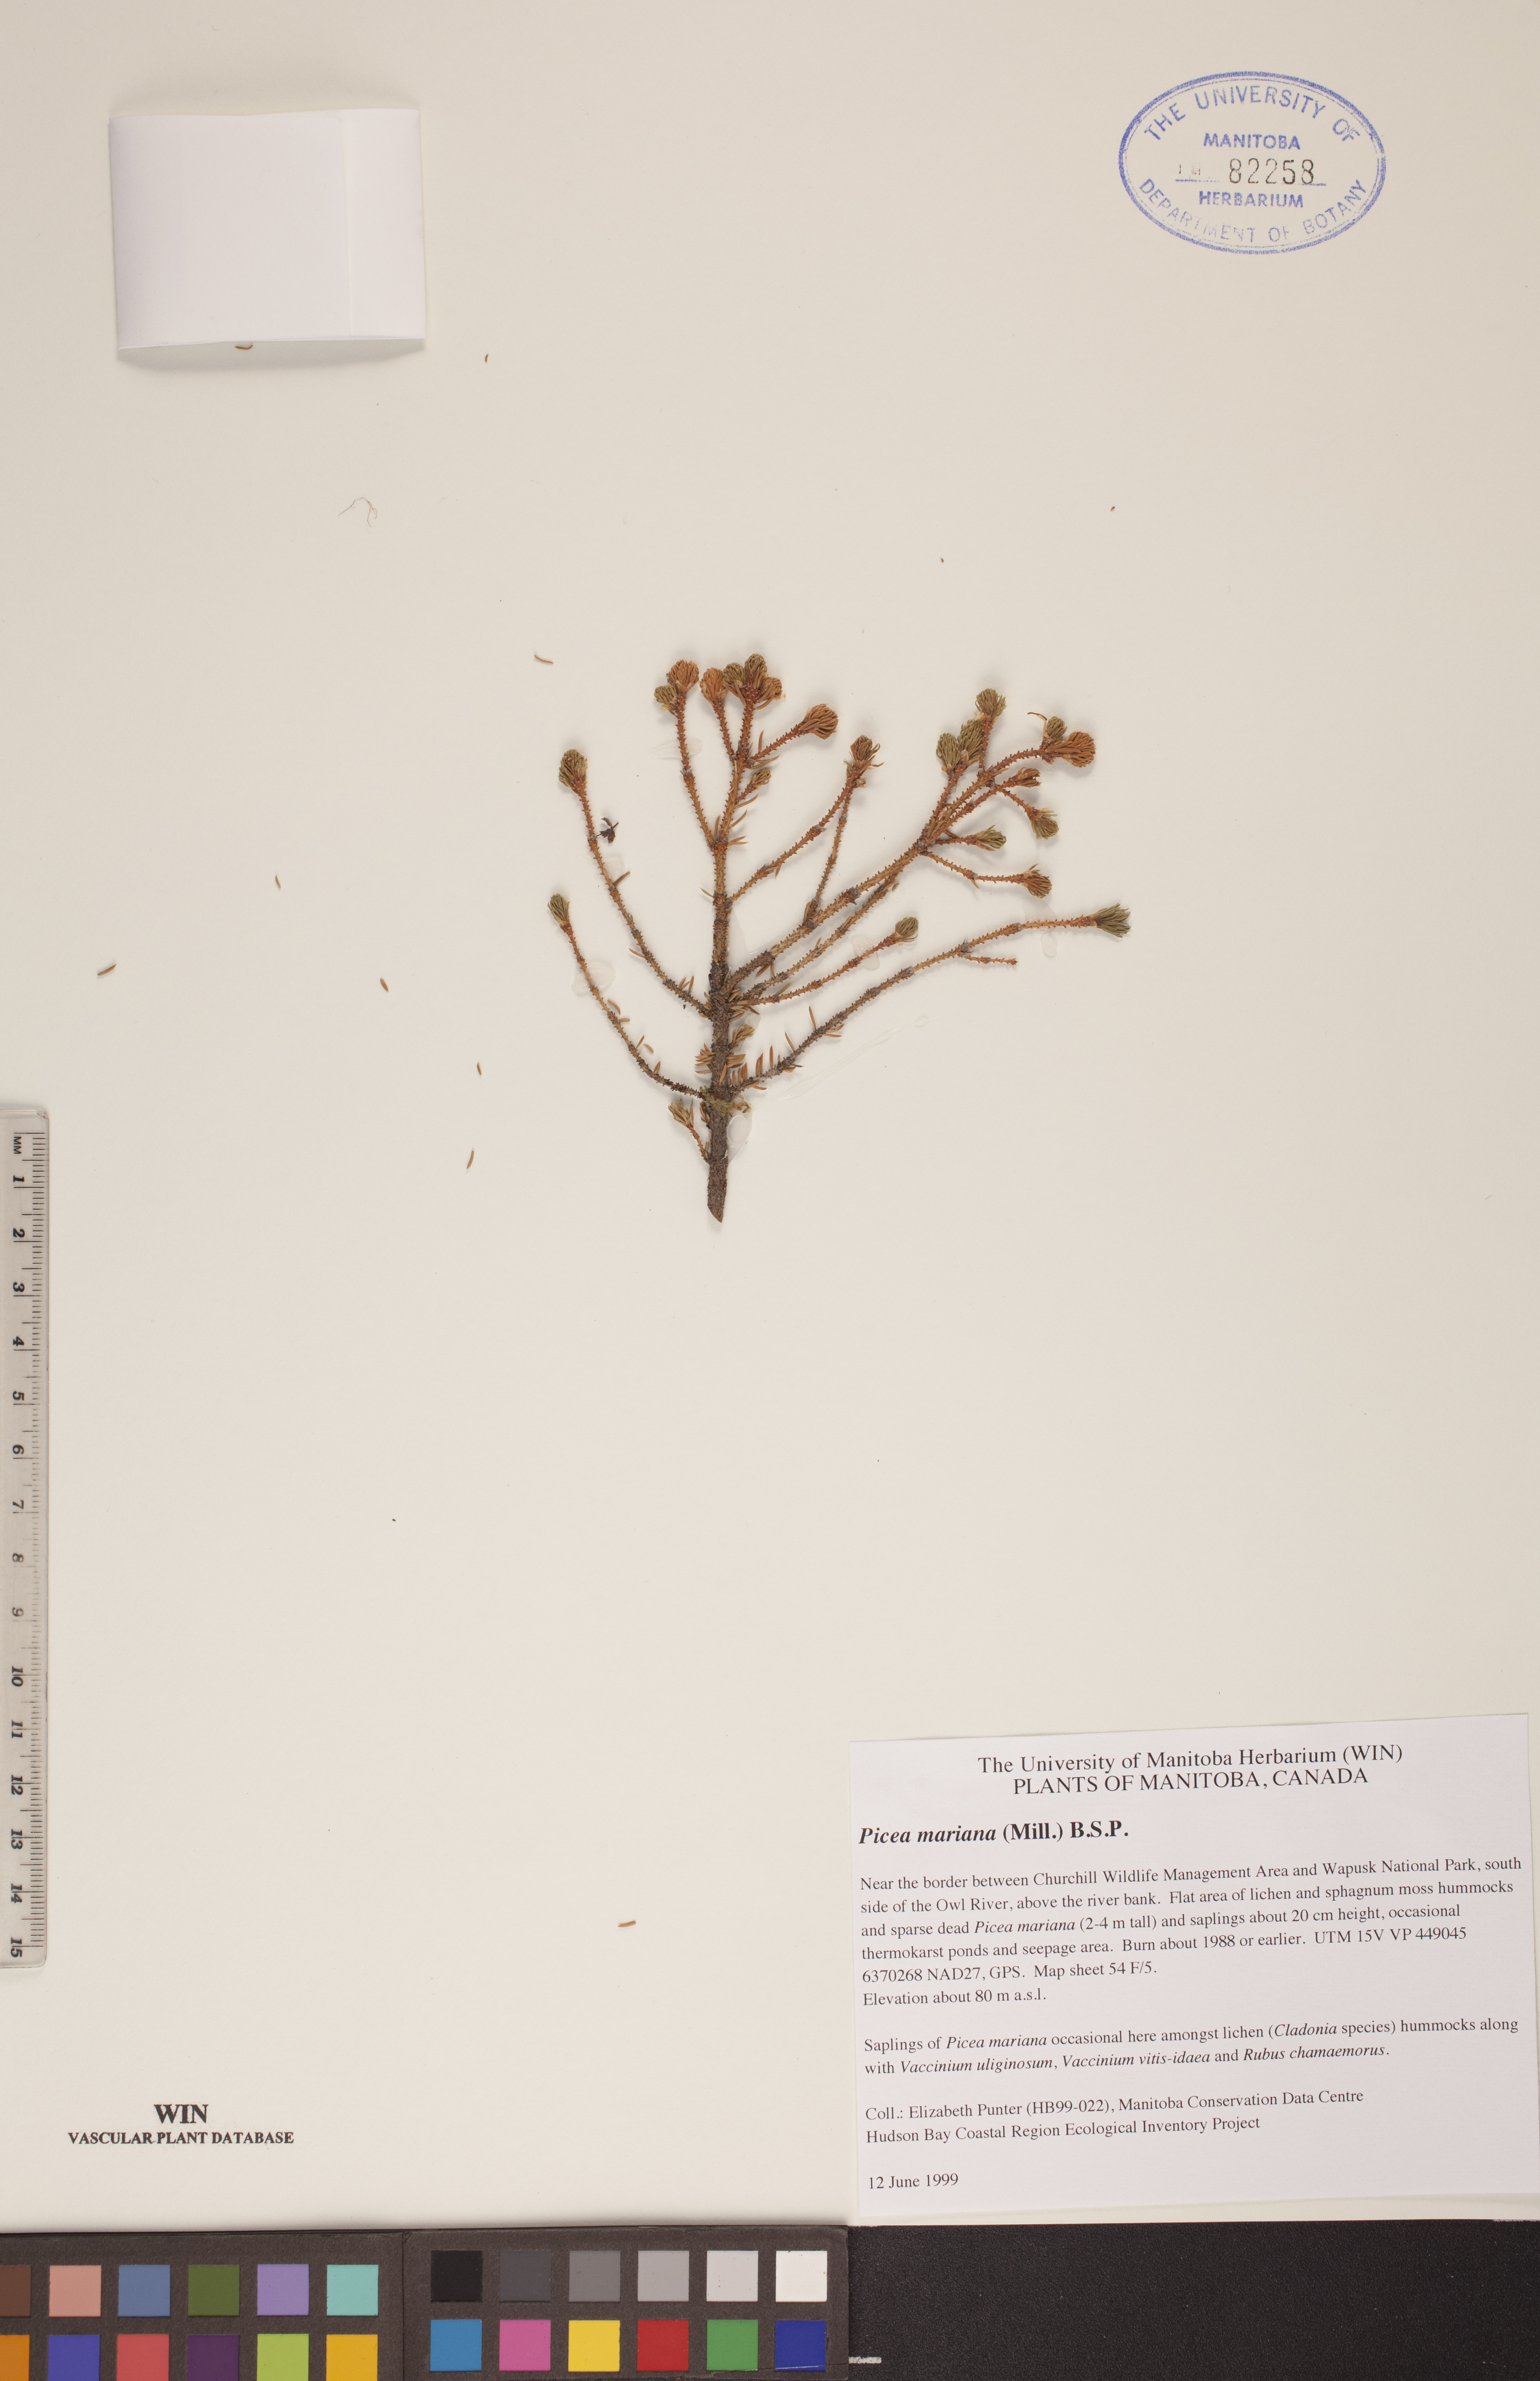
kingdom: Plantae
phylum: Tracheophyta
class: Pinopsida
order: Pinales
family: Pinaceae
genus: Picea
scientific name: Picea mariana
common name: Black spruce
